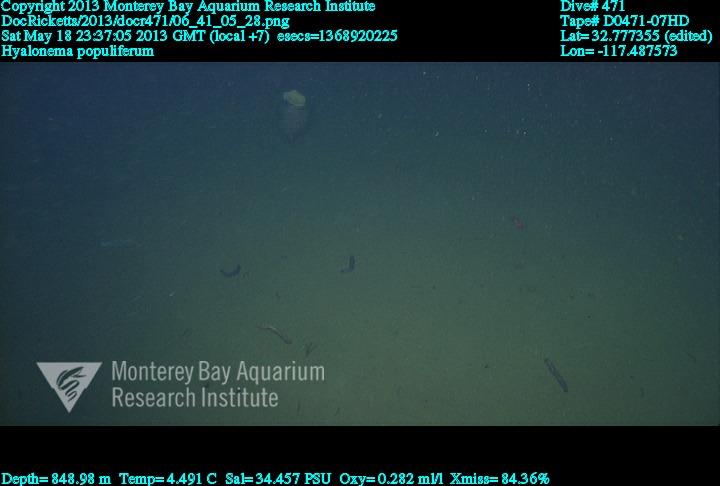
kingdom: Animalia
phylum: Porifera
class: Hexactinellida
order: Amphidiscosida
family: Hyalonematidae
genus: Hyalonema
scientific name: Hyalonema populiferum
